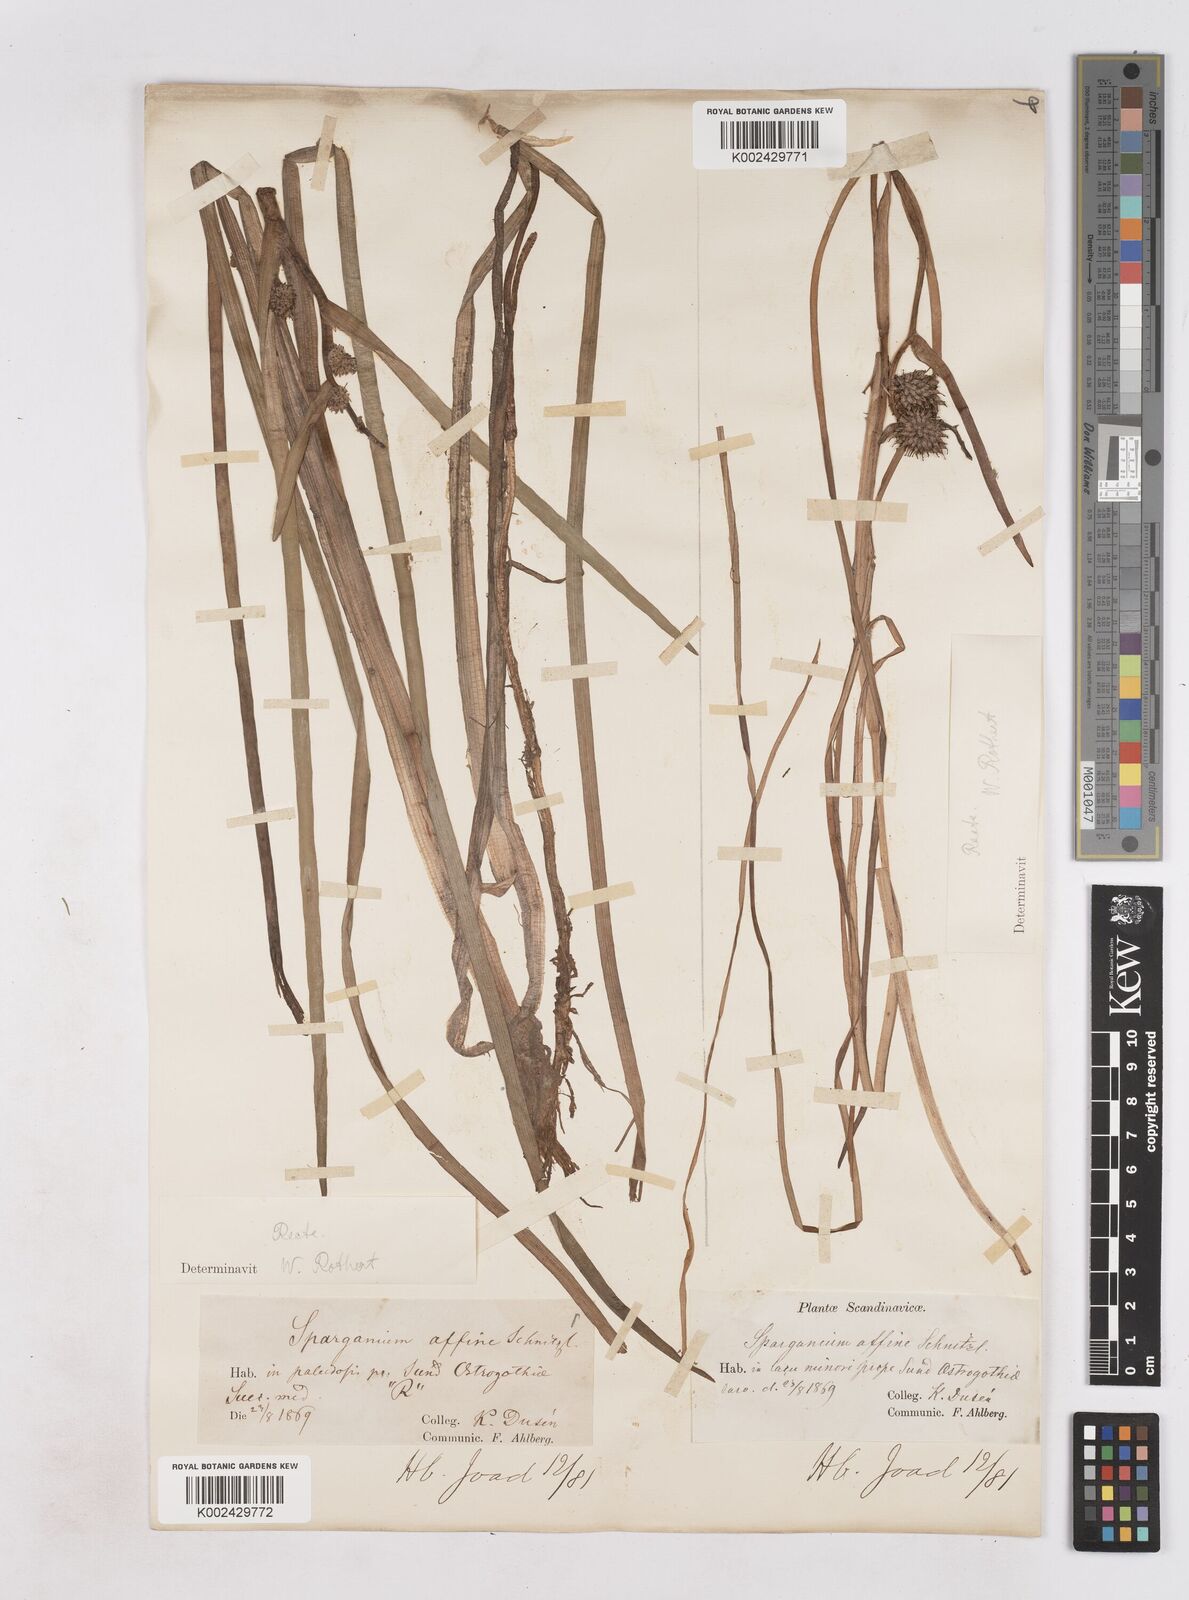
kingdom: Plantae
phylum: Tracheophyta
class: Liliopsida
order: Poales
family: Typhaceae
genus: Sparganium
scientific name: Sparganium angustifolium
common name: Floating bur-reed
